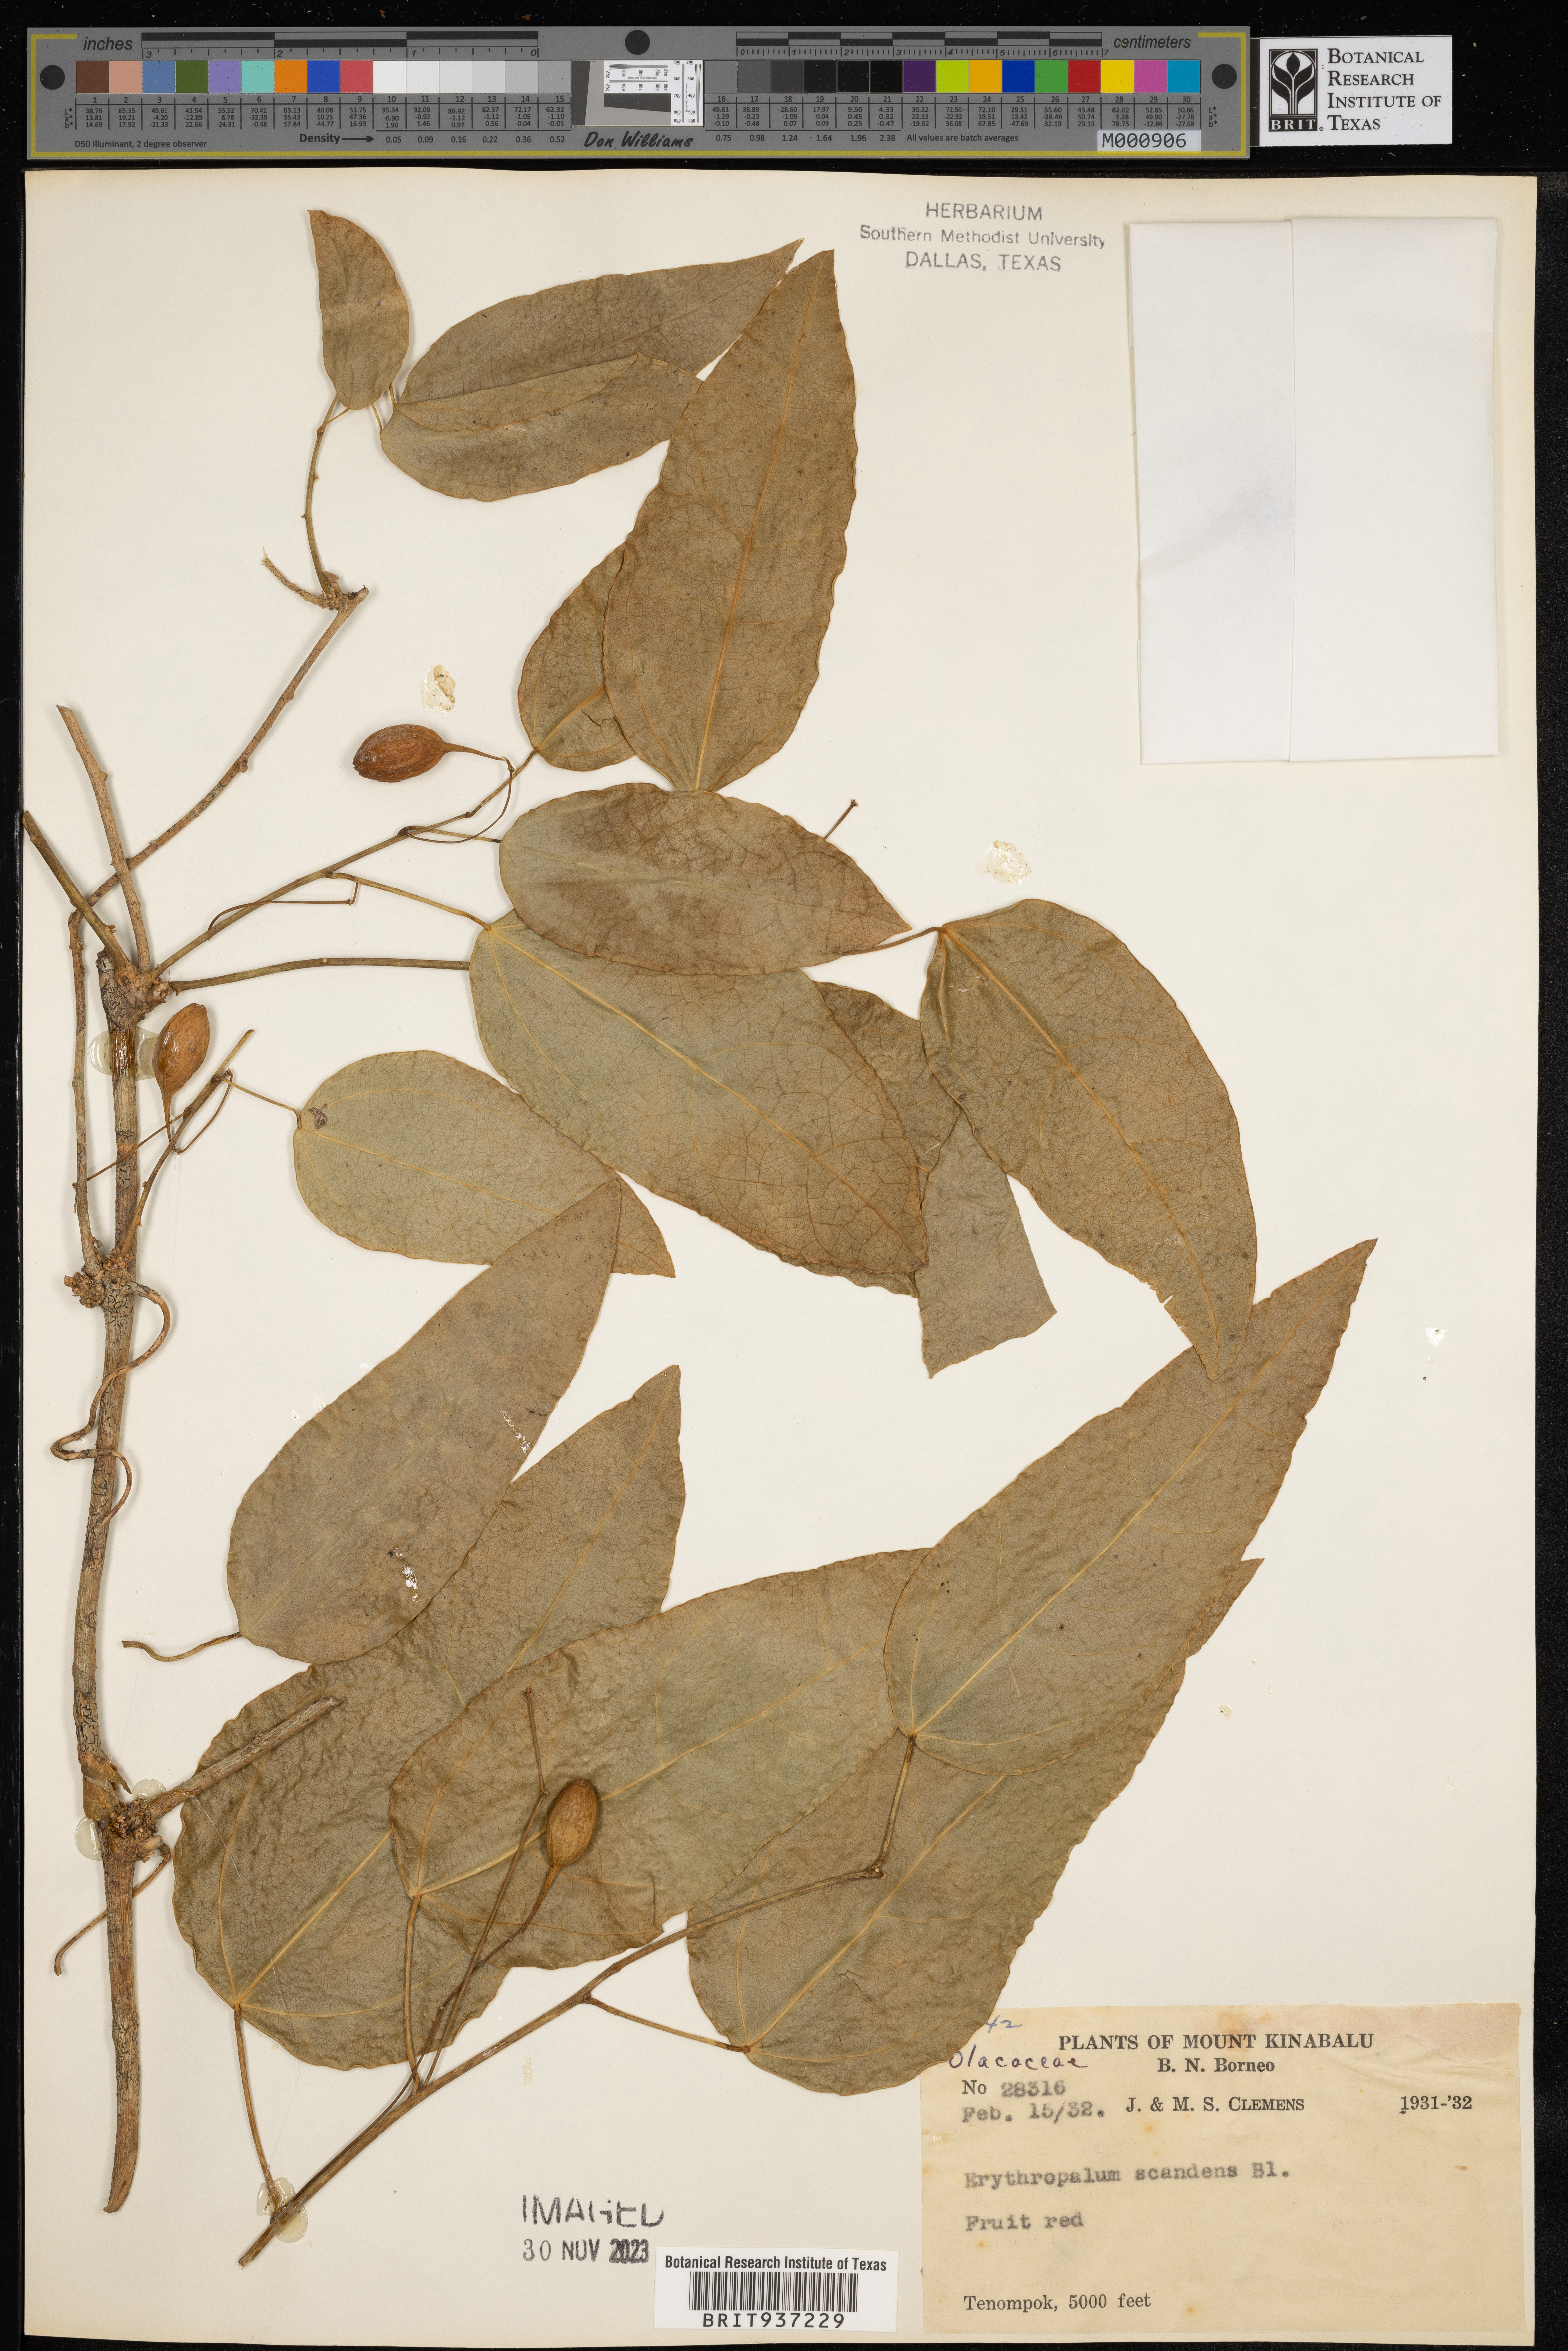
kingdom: Plantae
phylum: Tracheophyta
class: Magnoliopsida
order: Santalales
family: Erythropalaceae
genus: Erythropalum
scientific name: Erythropalum scandens
